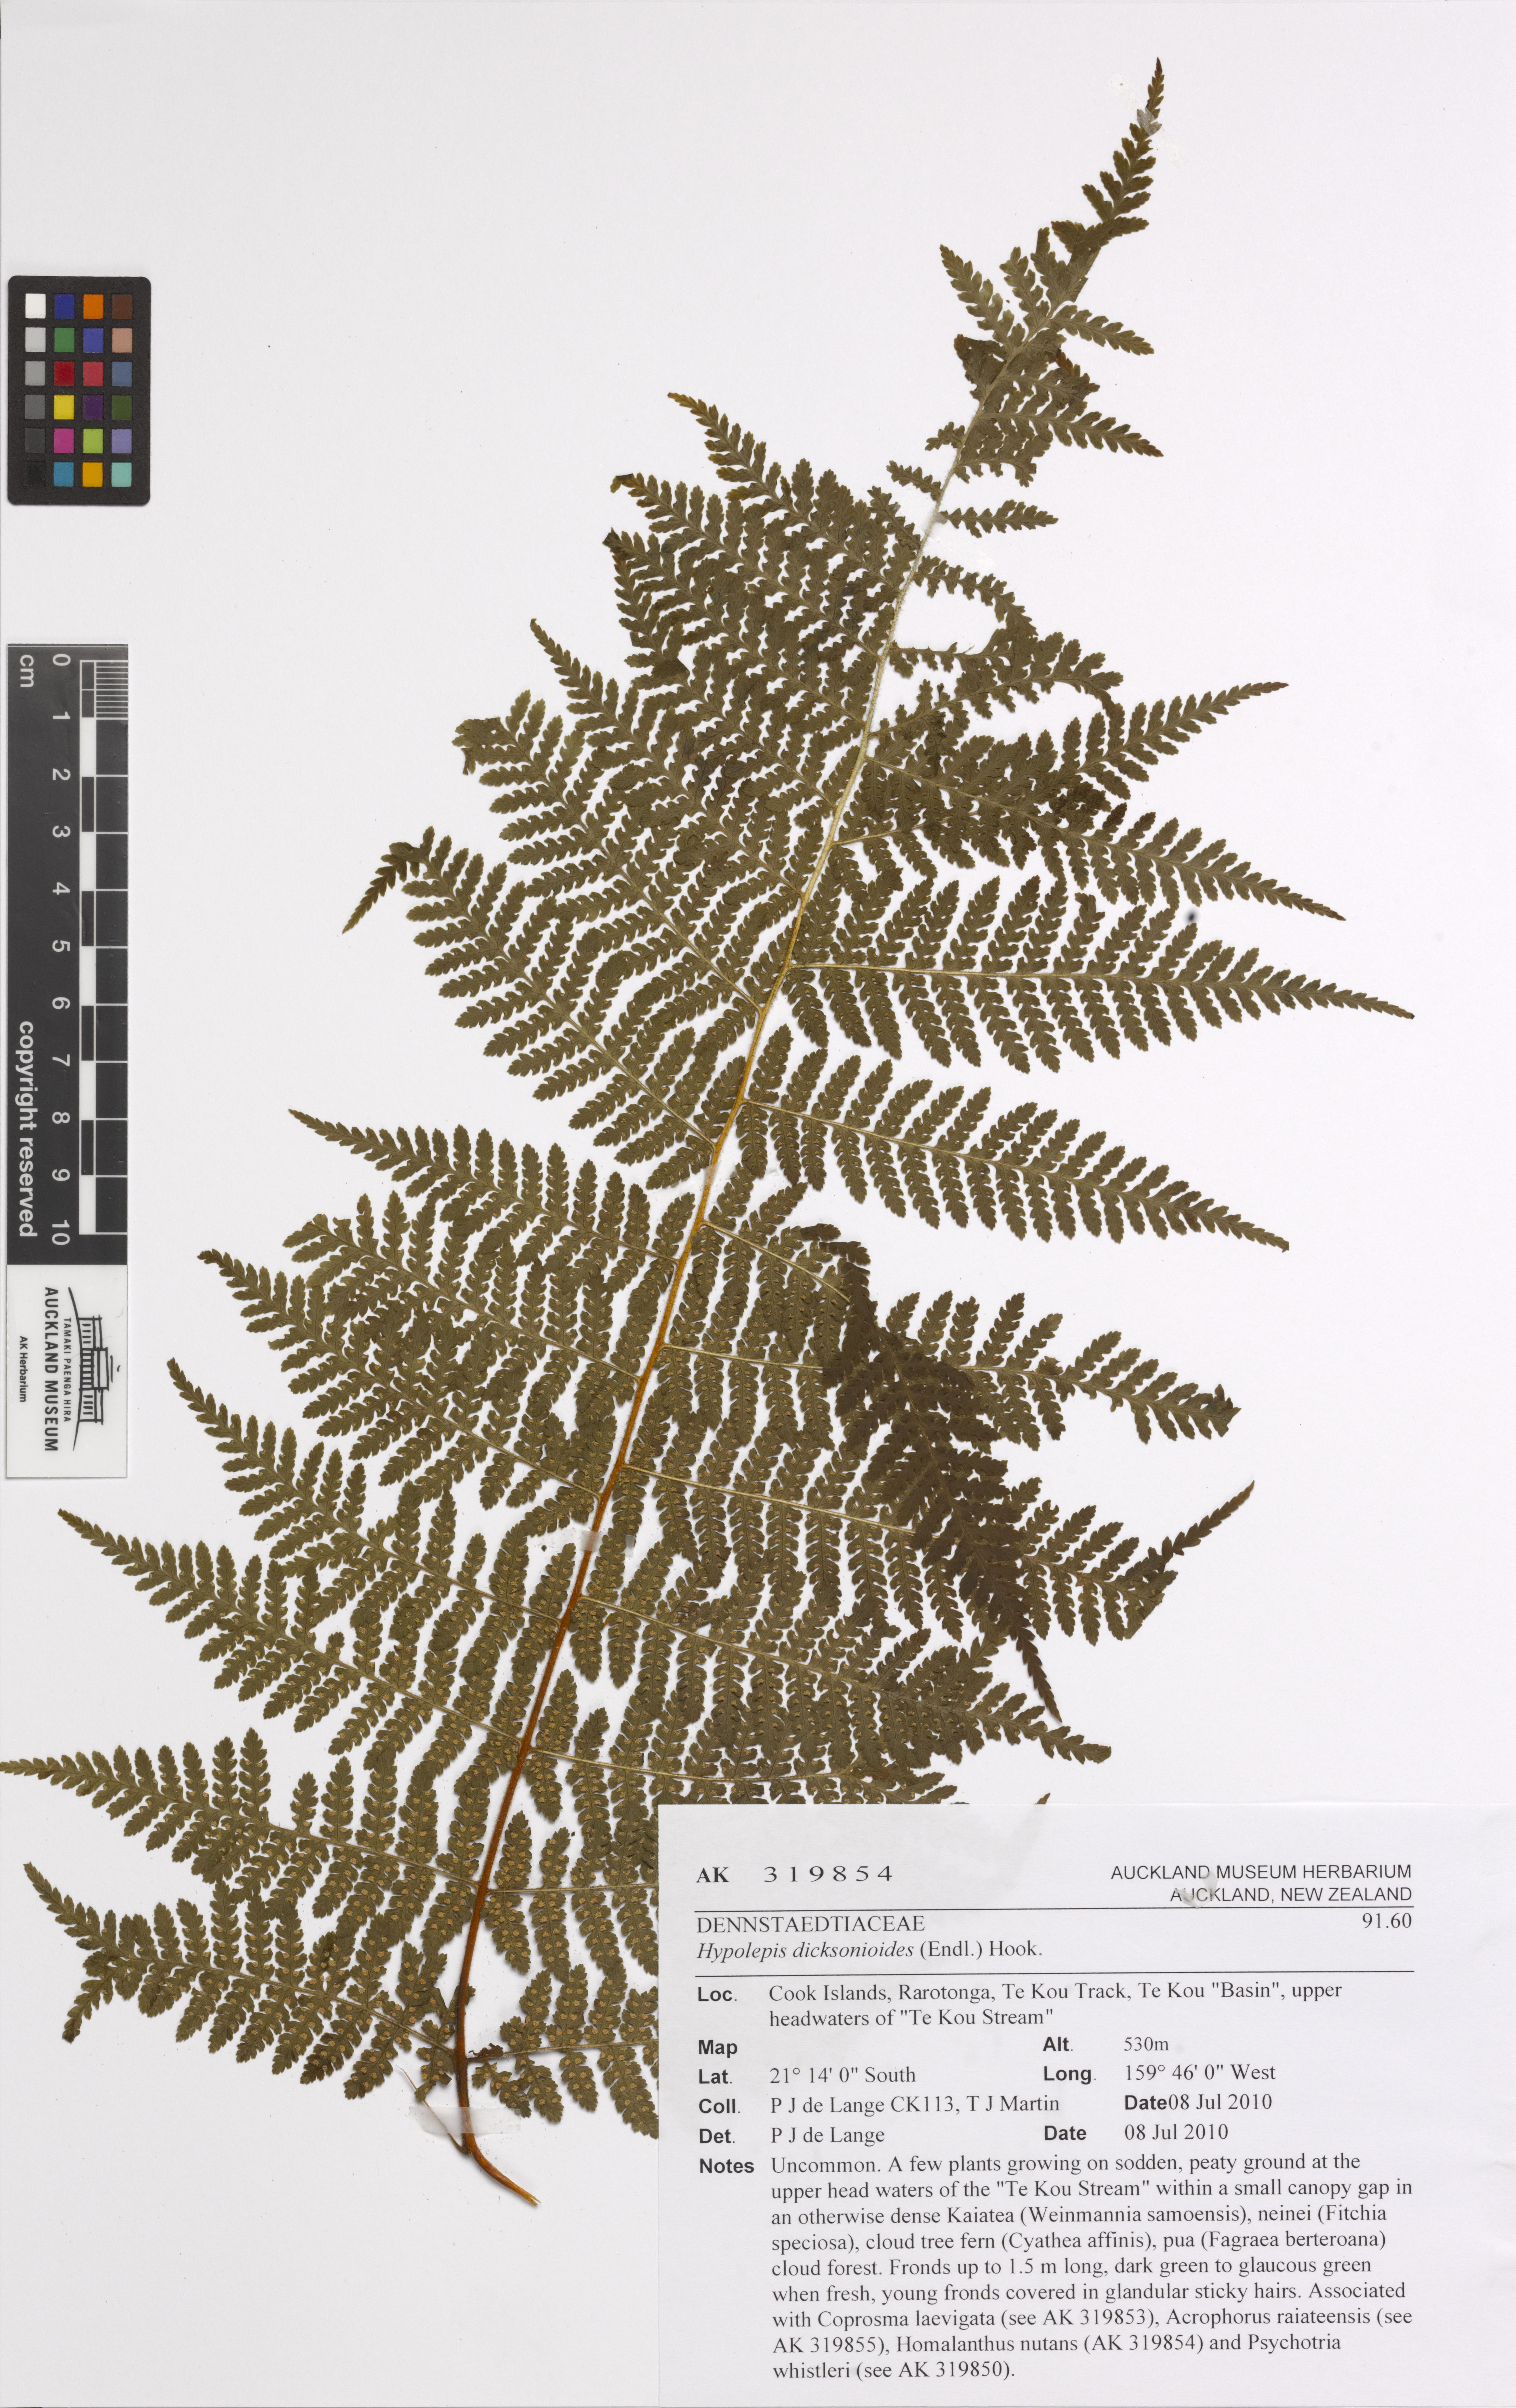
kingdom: Plantae
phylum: Tracheophyta
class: Polypodiopsida
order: Polypodiales
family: Dennstaedtiaceae
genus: Hypolepis
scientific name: Hypolepis dicksonioides
